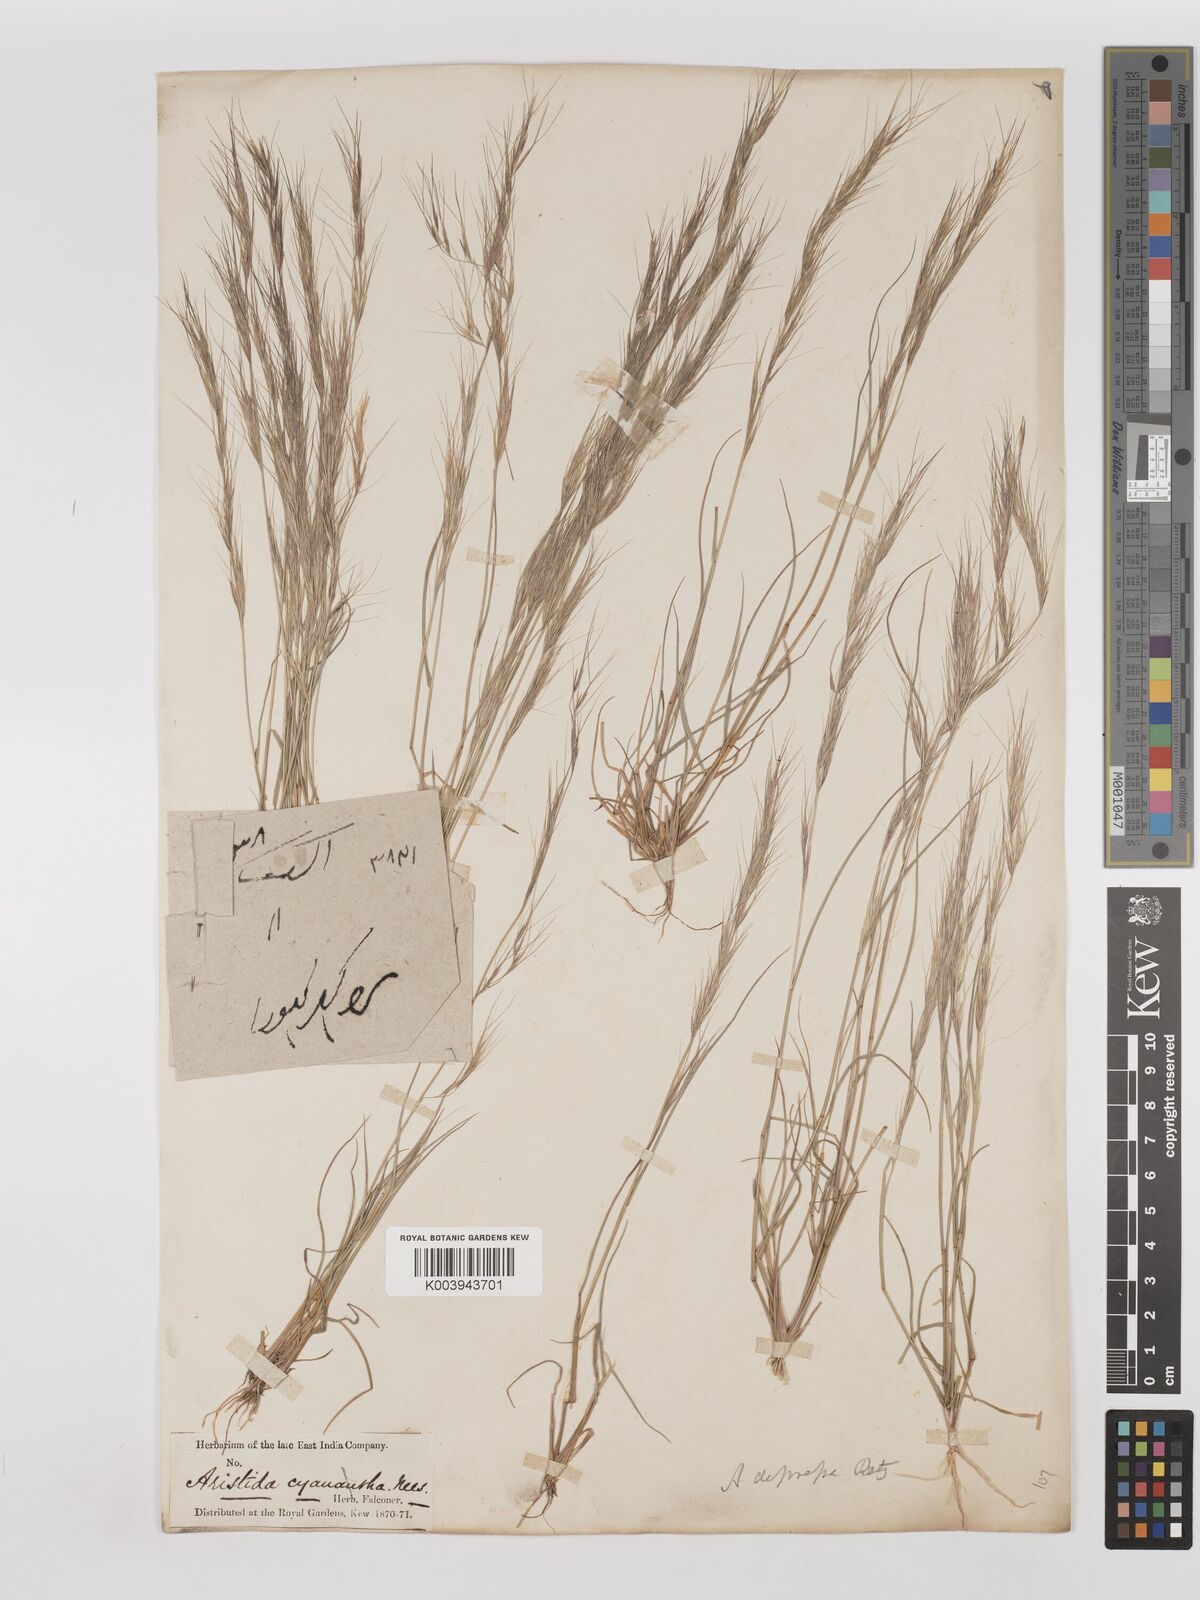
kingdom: Plantae
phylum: Tracheophyta
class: Liliopsida
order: Poales
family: Poaceae
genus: Aristida
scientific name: Aristida adscensionis
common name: Sixweeks threeawn
